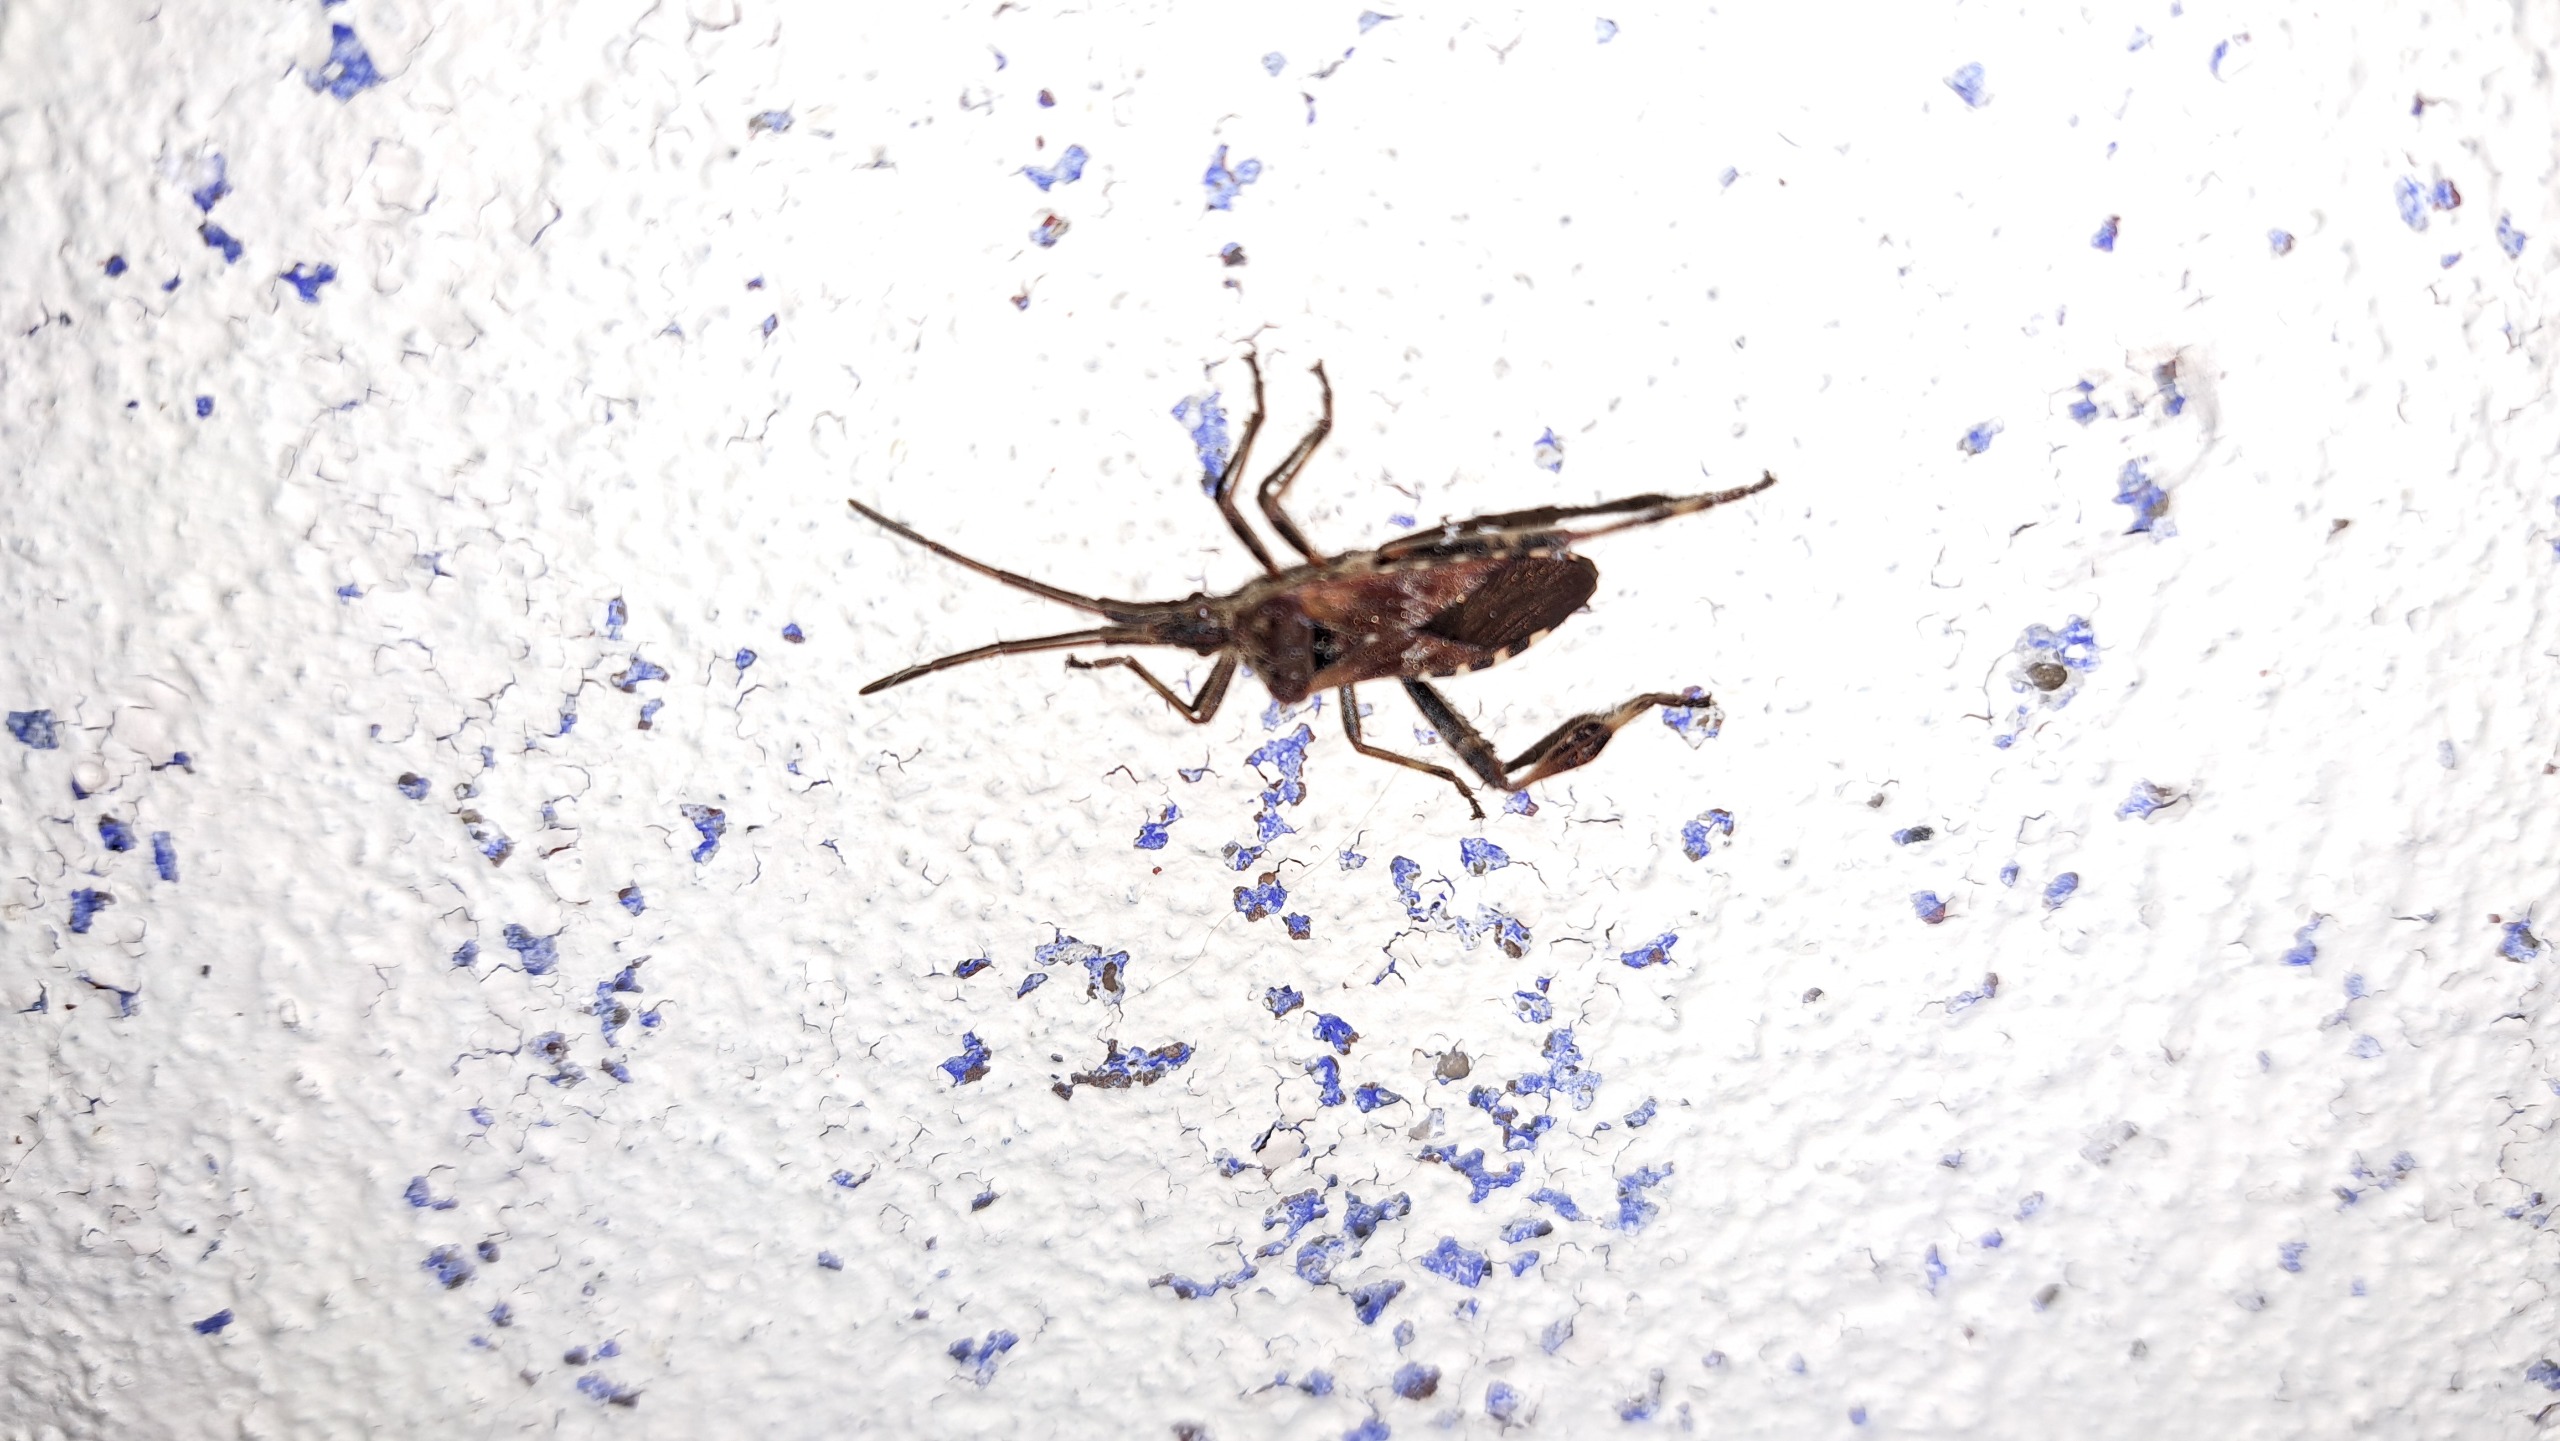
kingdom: Animalia
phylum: Arthropoda
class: Insecta
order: Hemiptera
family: Coreidae
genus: Leptoglossus
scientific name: Leptoglossus occidentalis
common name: Amerikansk fyrretæge
